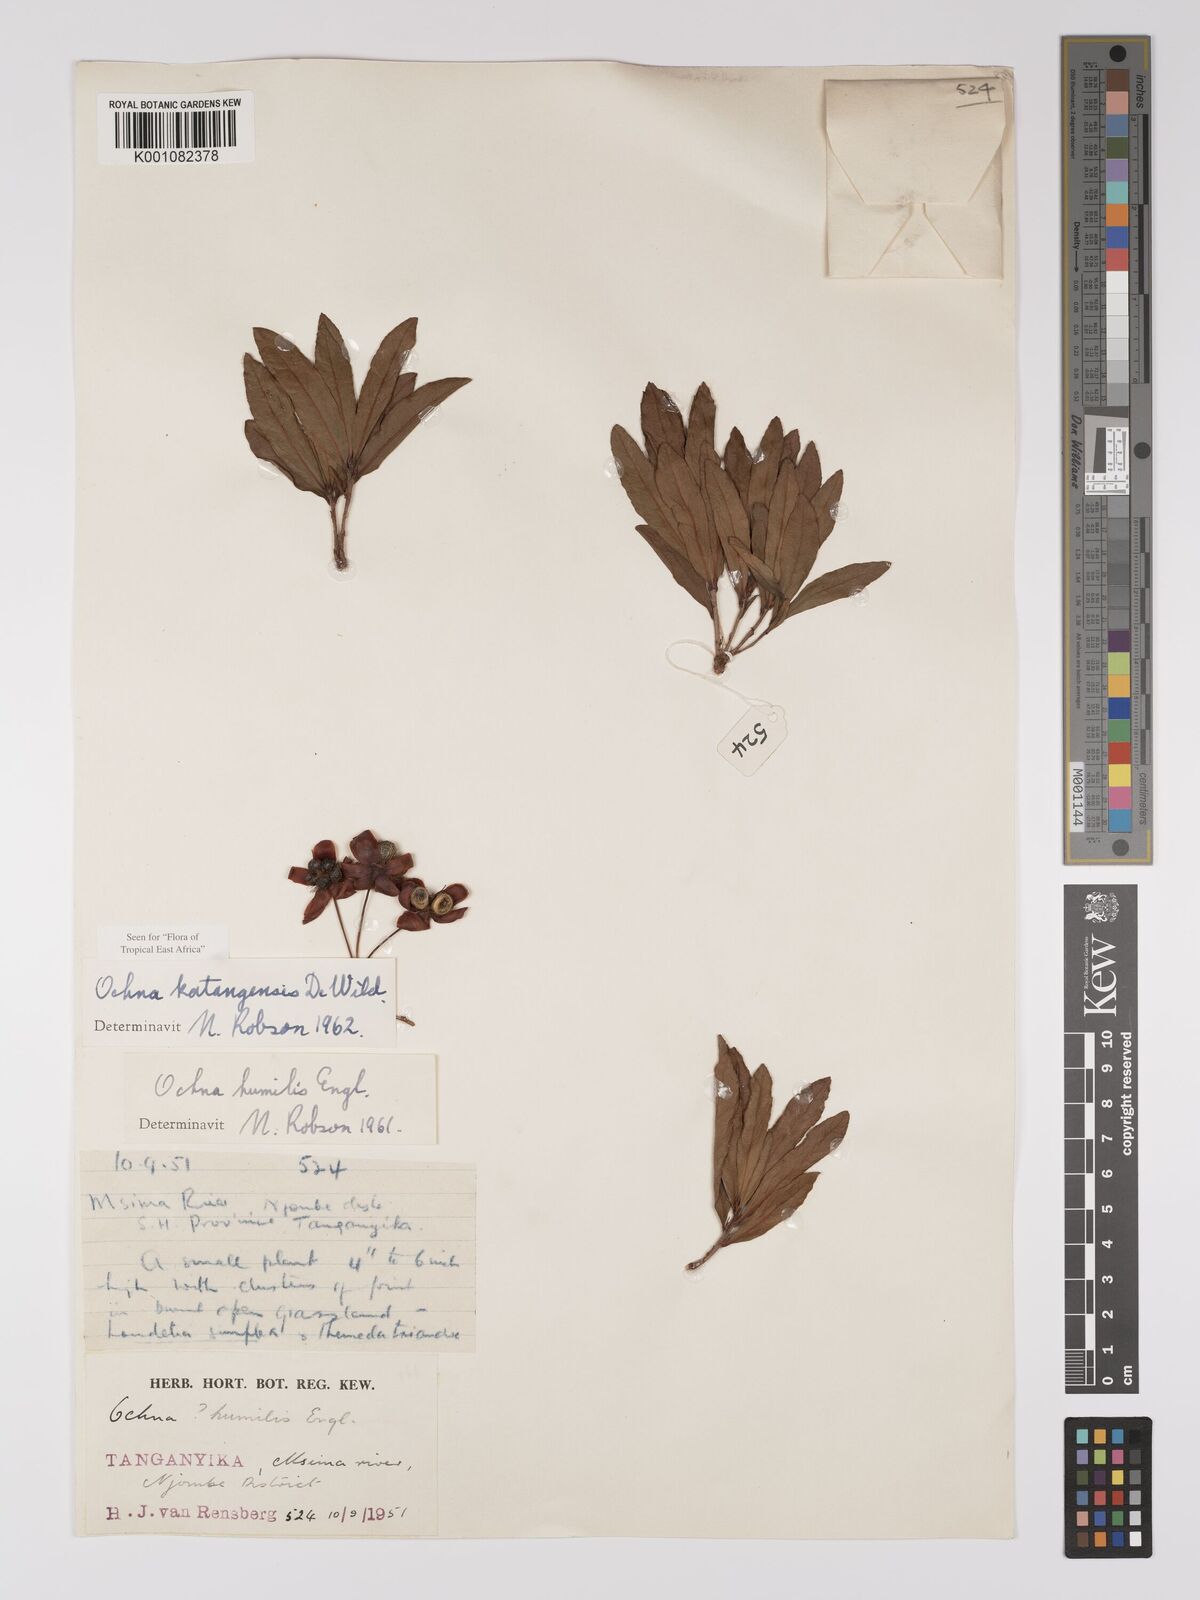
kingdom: Plantae
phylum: Tracheophyta
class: Magnoliopsida
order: Malpighiales
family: Ochnaceae
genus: Ochna
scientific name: Ochna katangensis
